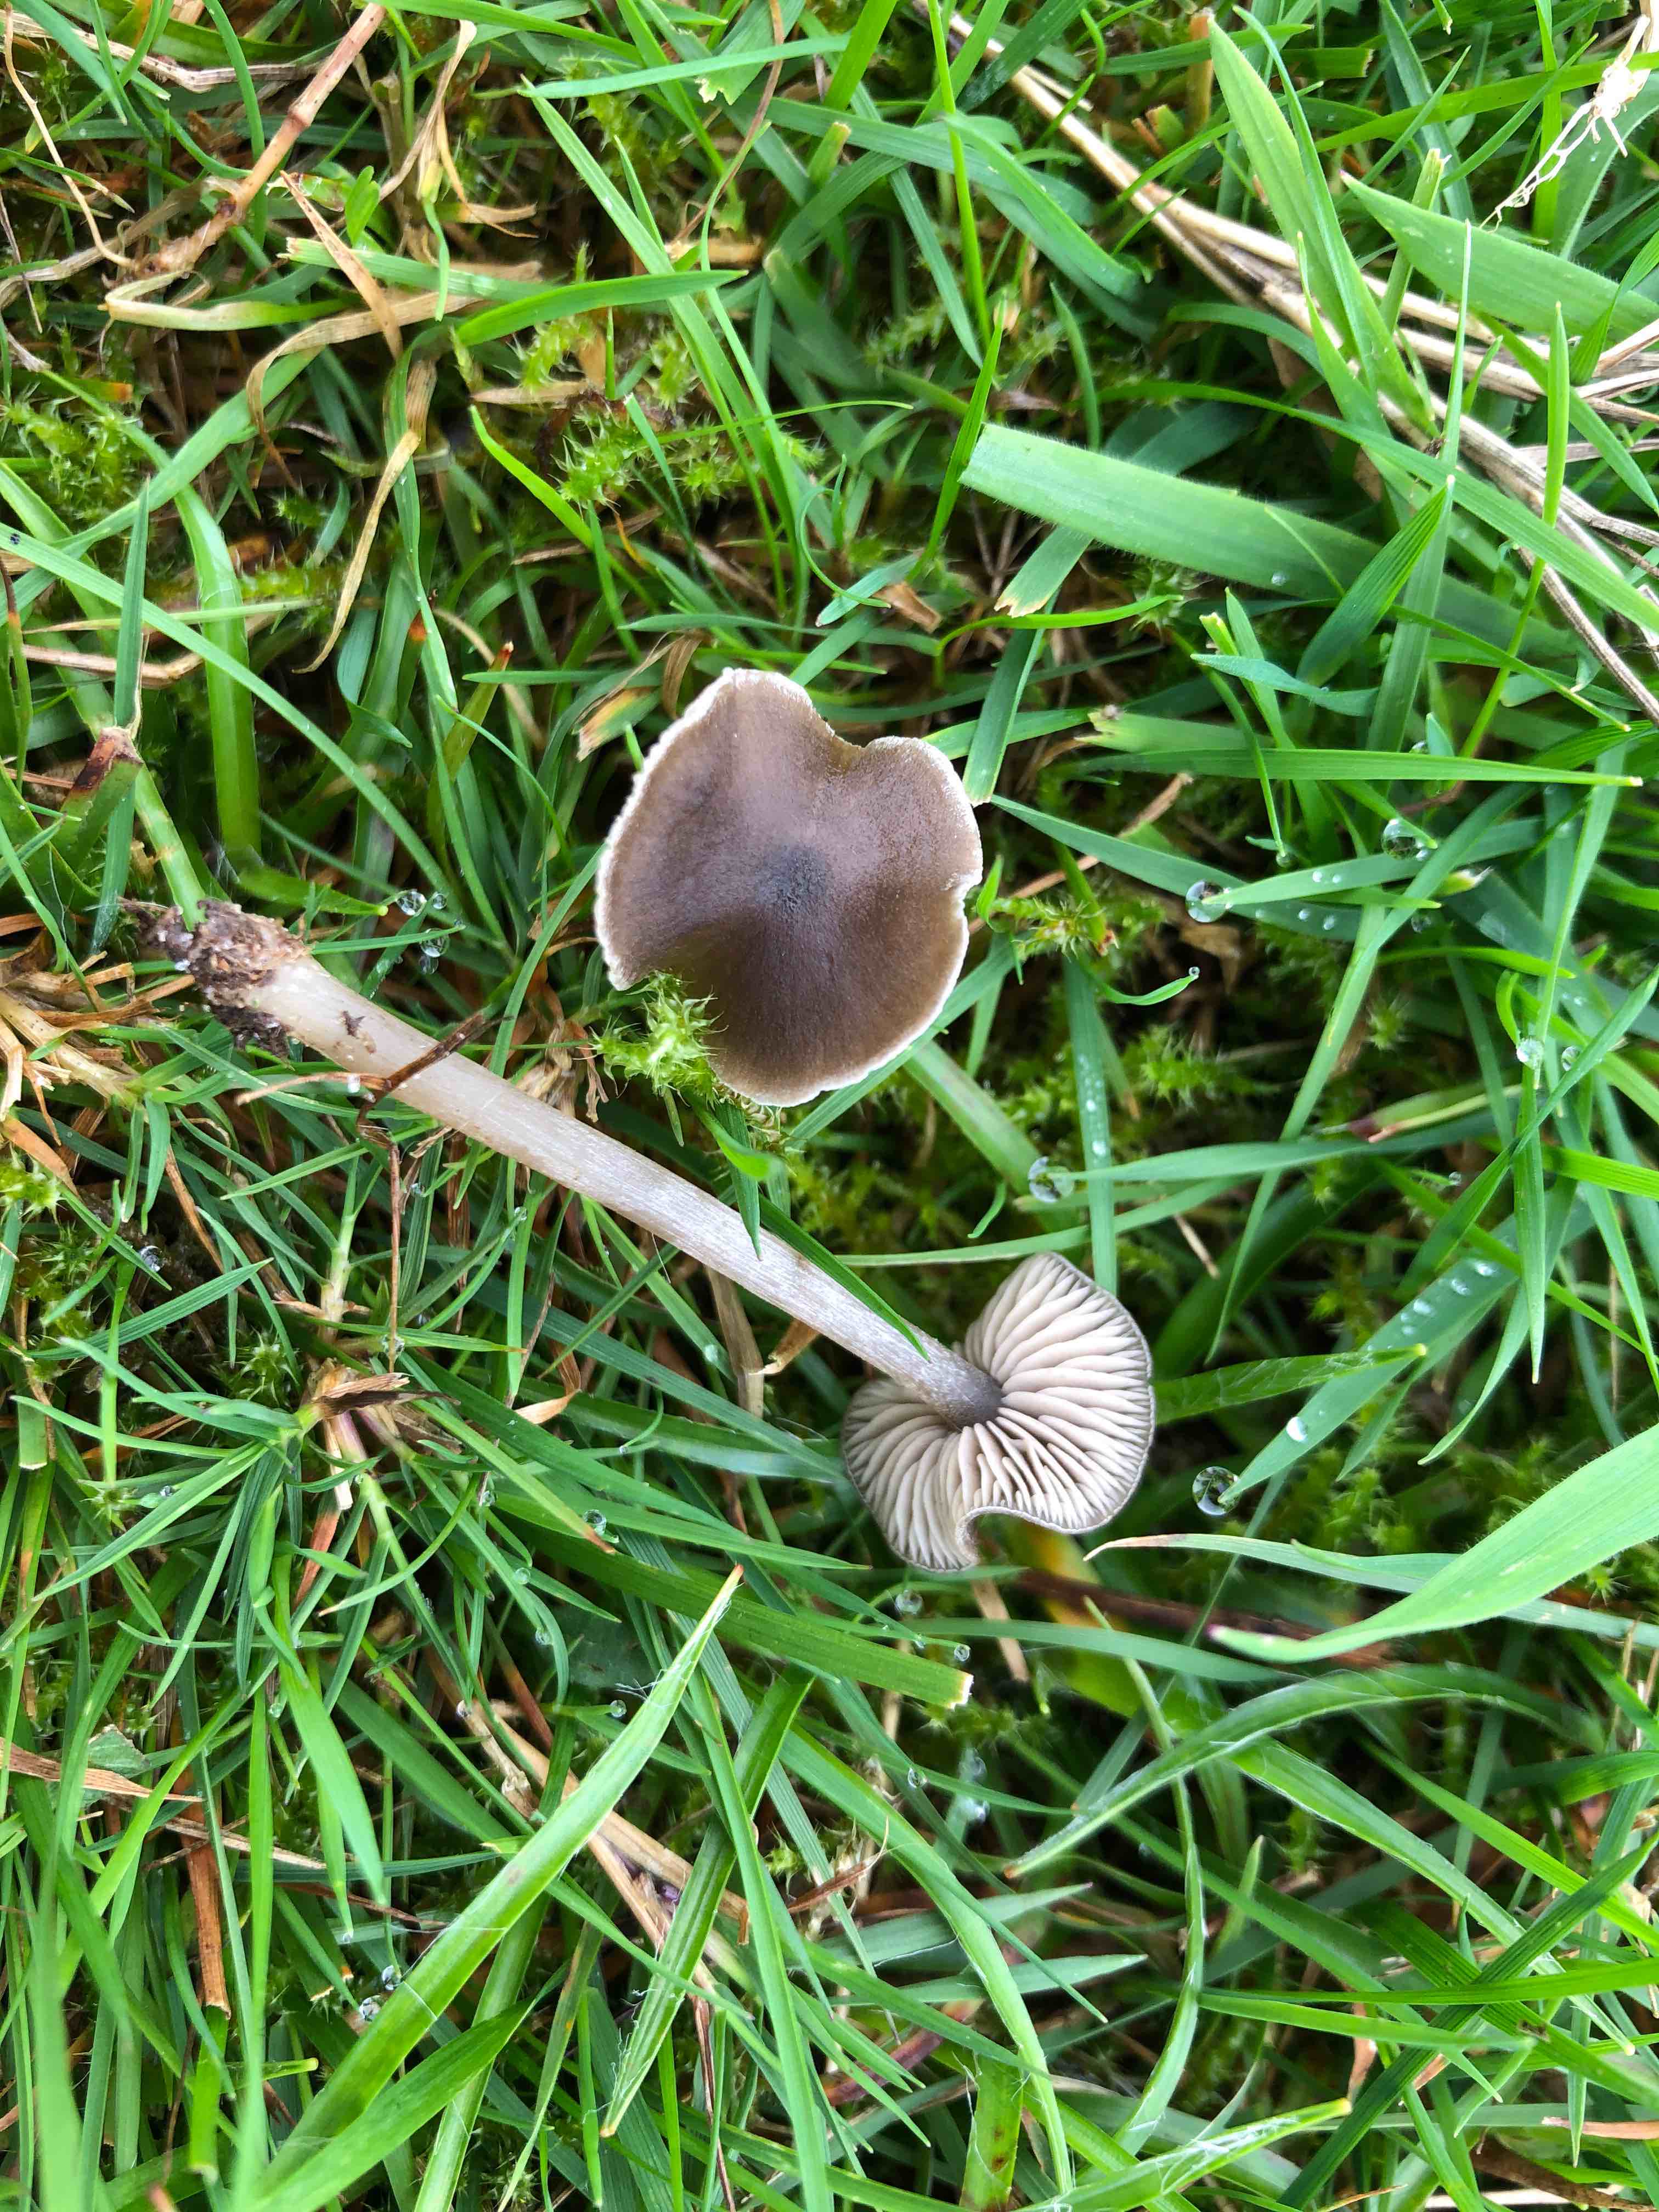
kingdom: Fungi
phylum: Basidiomycota
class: Agaricomycetes
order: Agaricales
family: Entolomataceae
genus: Entoloma
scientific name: Entoloma
